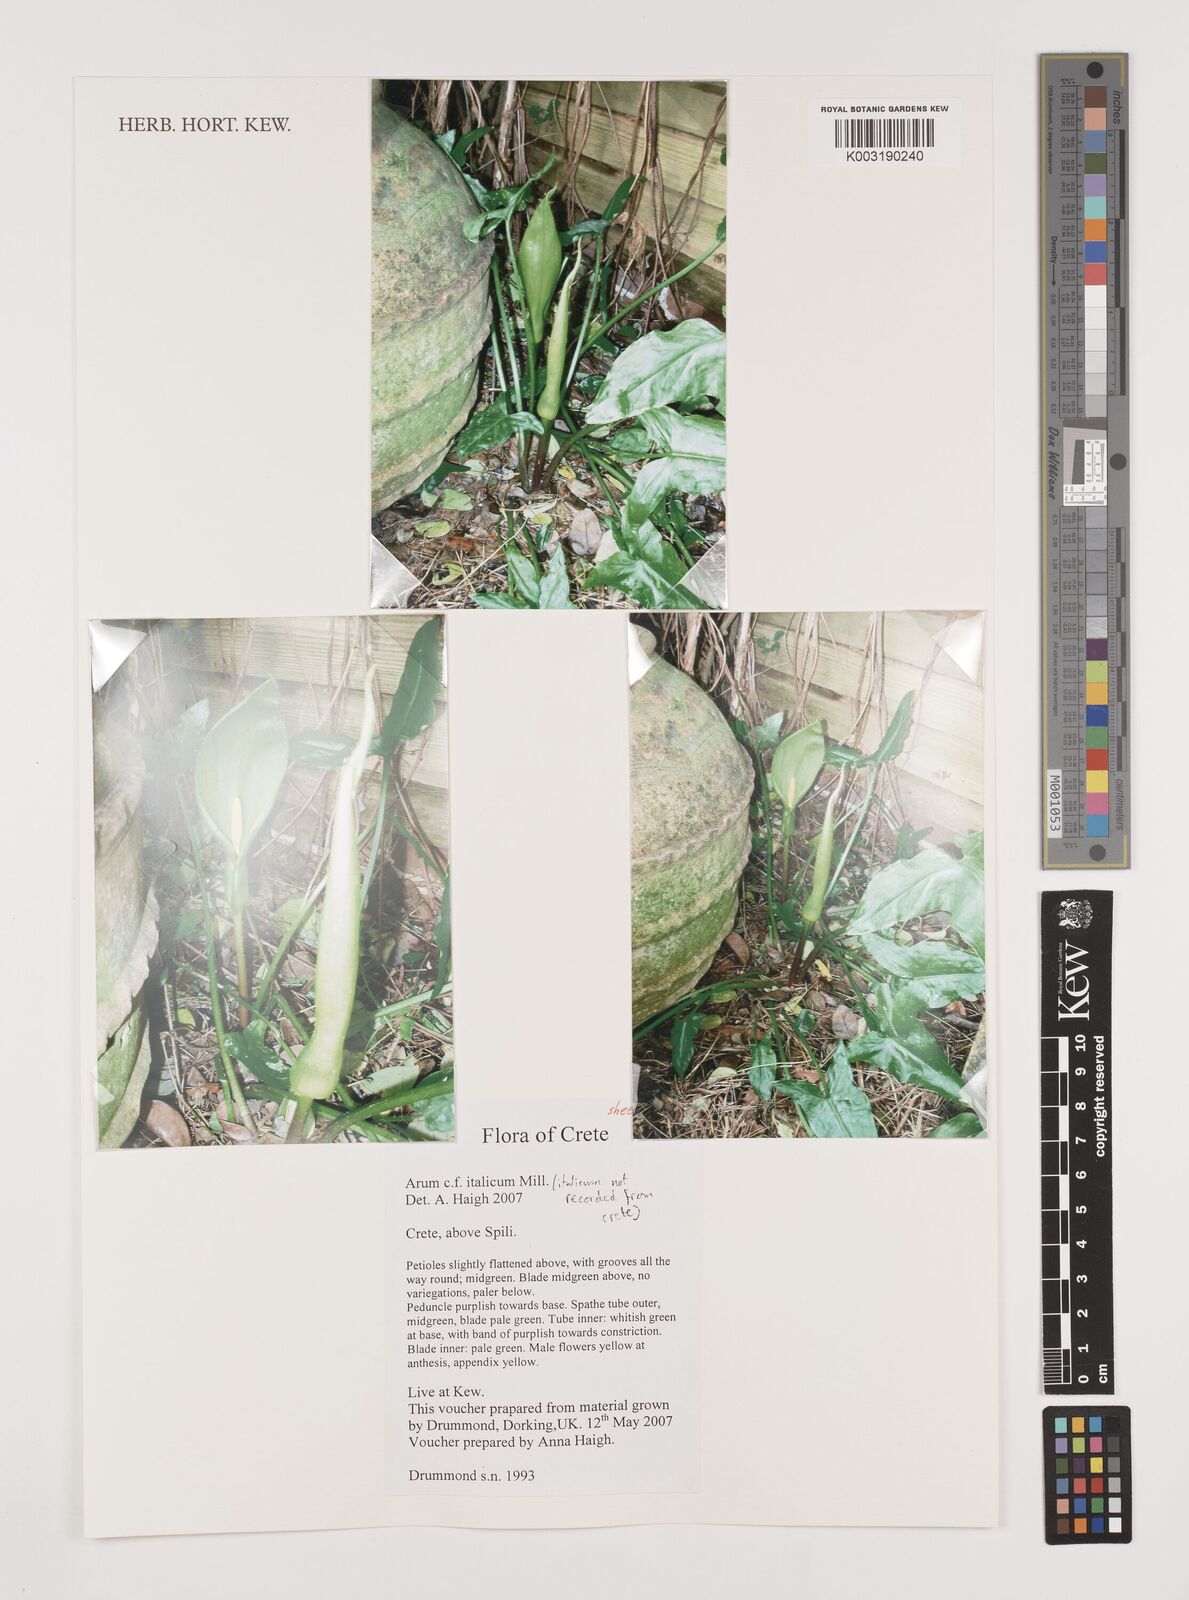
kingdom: Plantae
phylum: Tracheophyta
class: Liliopsida
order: Alismatales
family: Araceae
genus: Arum
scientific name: Arum italicum
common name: Italian lords-and-ladies
